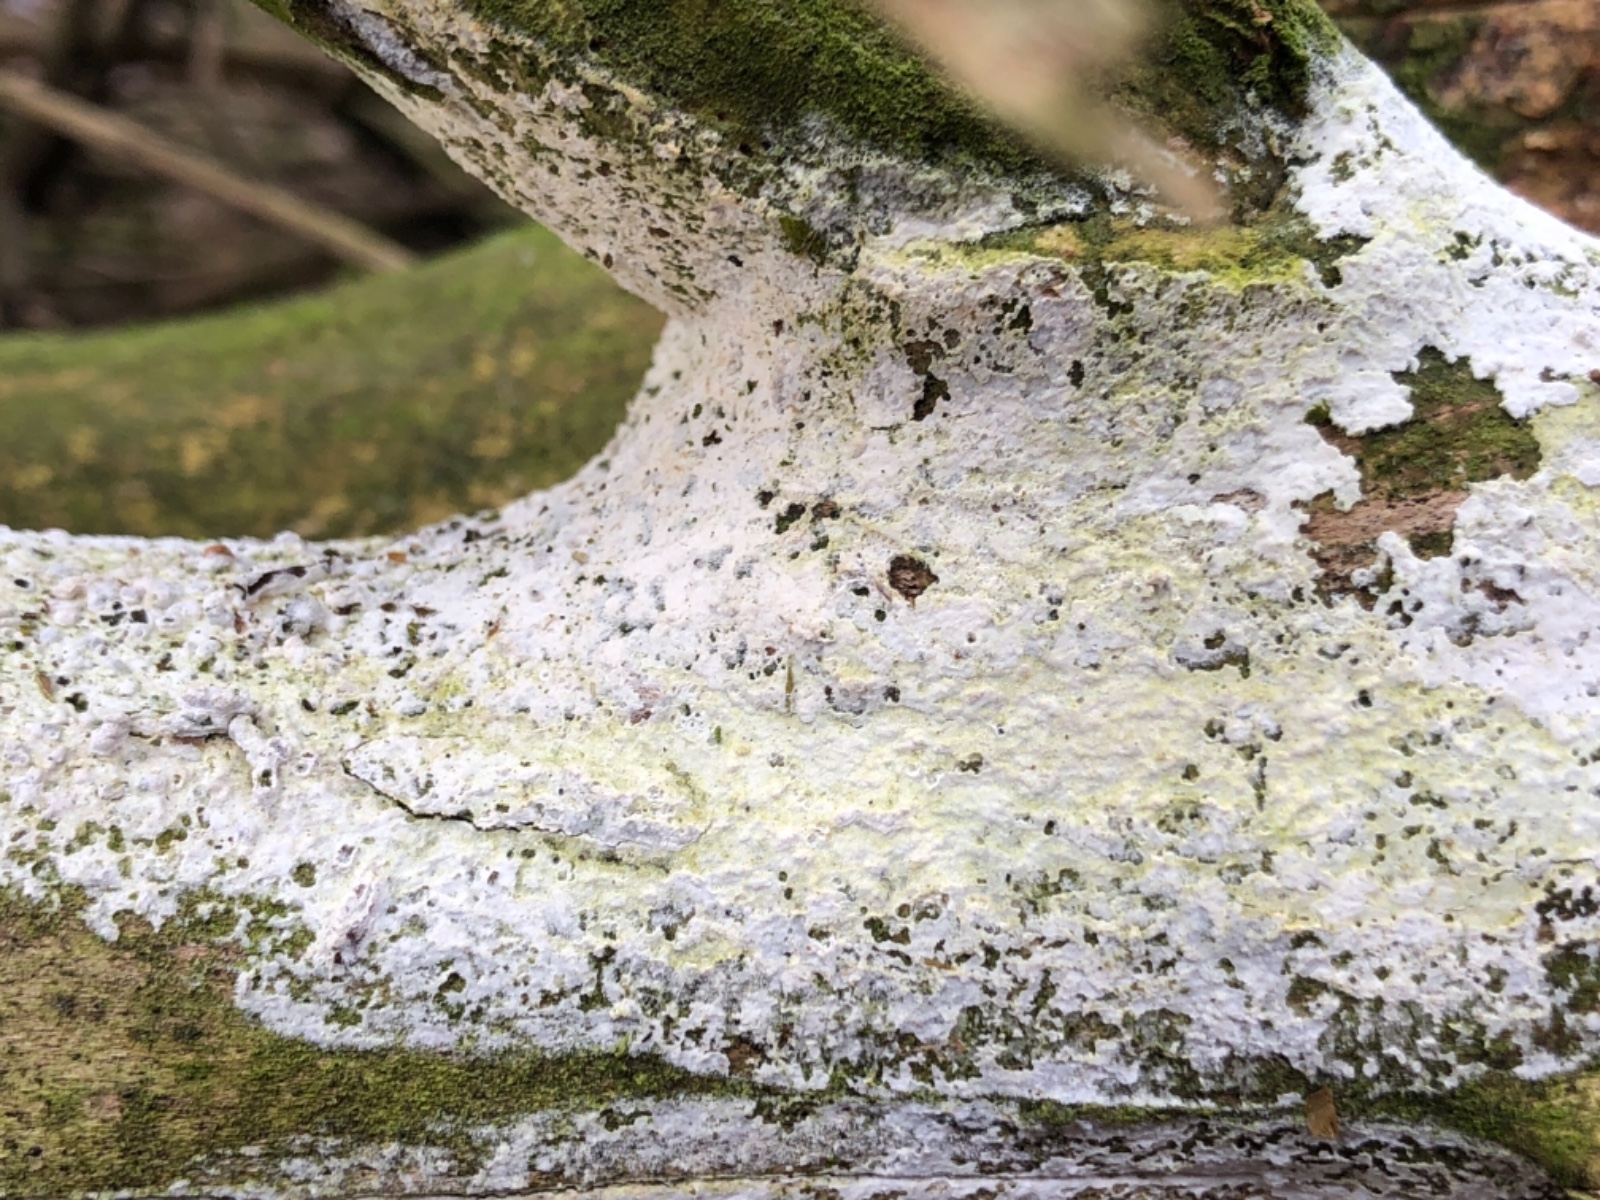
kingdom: Fungi
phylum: Basidiomycota
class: Agaricomycetes
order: Corticiales
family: Corticiaceae
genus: Lyomyces
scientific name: Lyomyces sambuci
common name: almindelig hyldehinde
